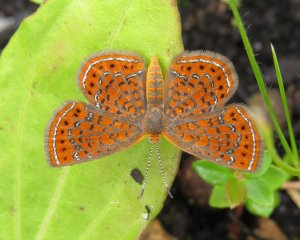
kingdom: Animalia
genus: Calephelis
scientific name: Calephelis virginiensis
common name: Little Metalmark
